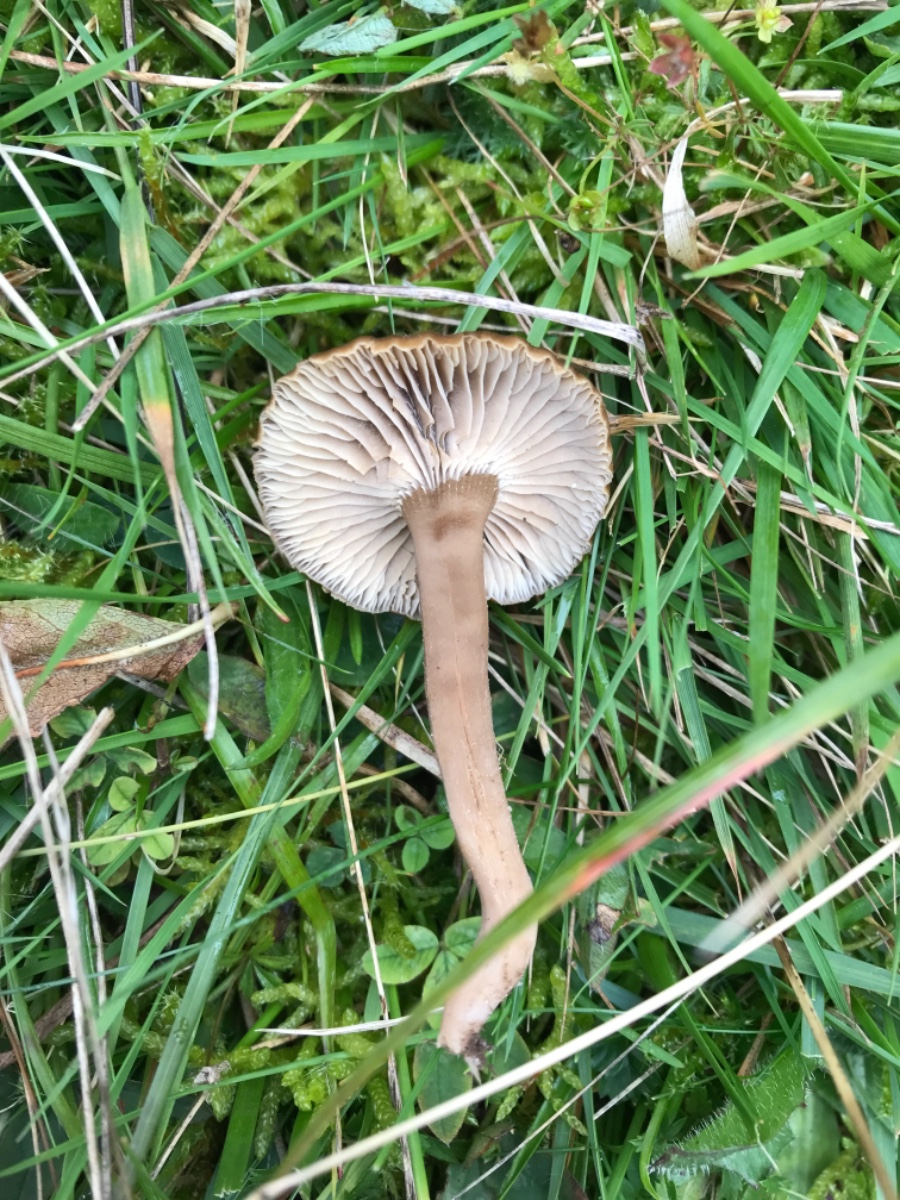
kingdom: Fungi
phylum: Basidiomycota
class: Agaricomycetes
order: Agaricales
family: Clavariaceae
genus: Camarophyllopsis
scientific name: Camarophyllopsis schulzeri
